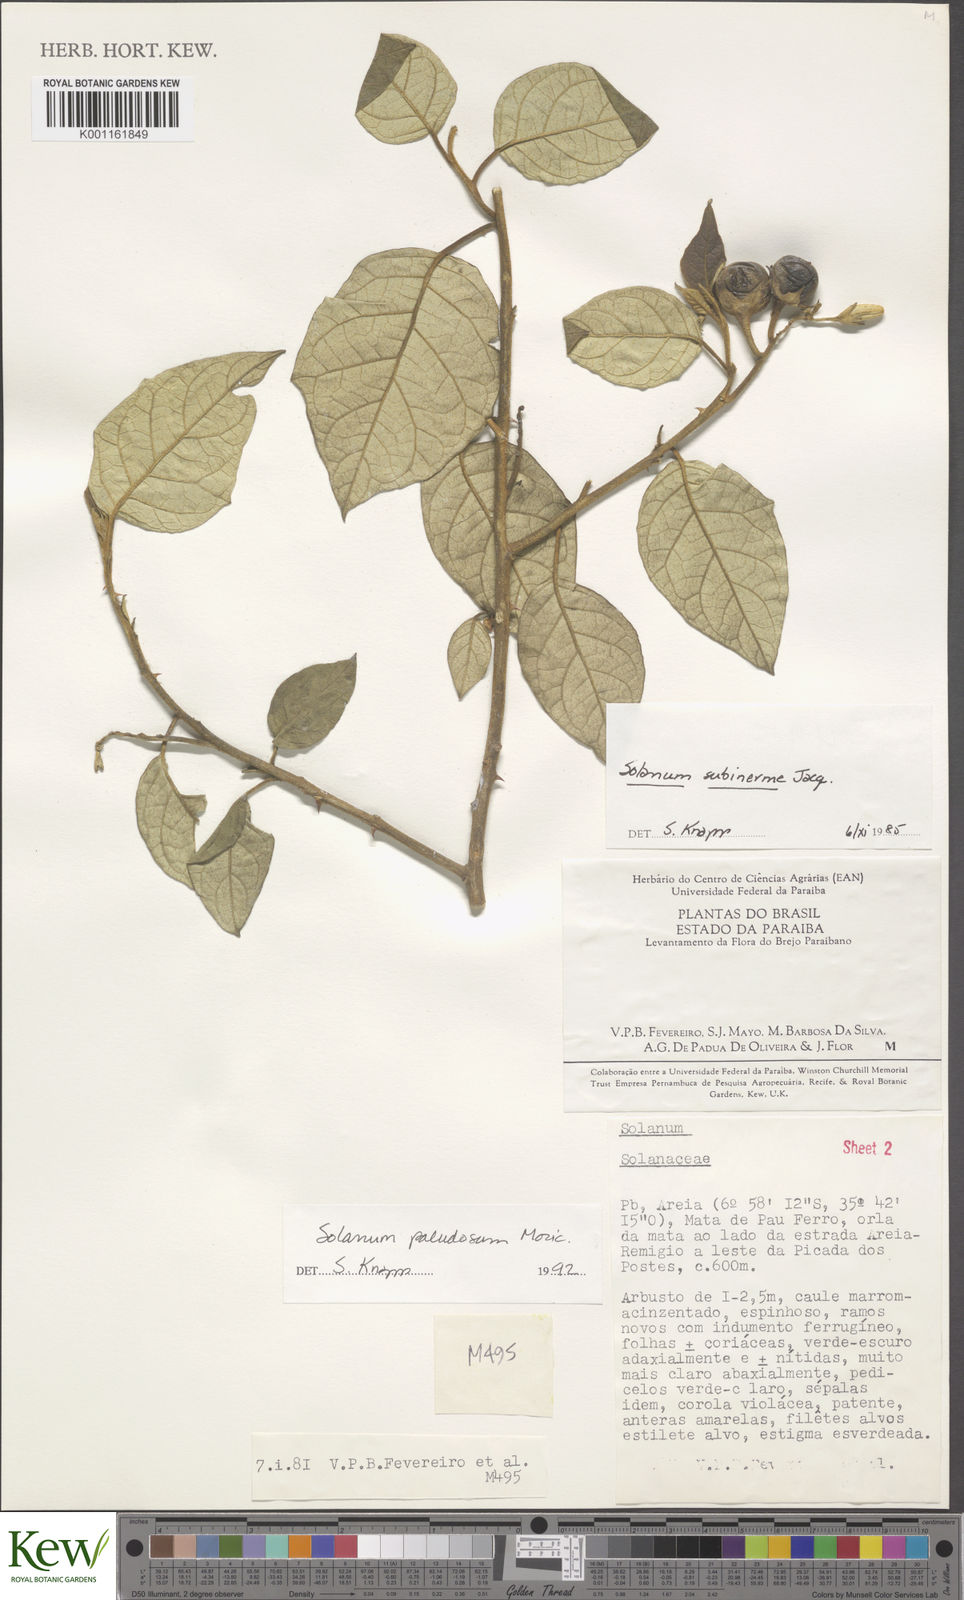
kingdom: Plantae
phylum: Tracheophyta
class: Magnoliopsida
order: Solanales
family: Solanaceae
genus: Solanum
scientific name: Solanum paludosum
